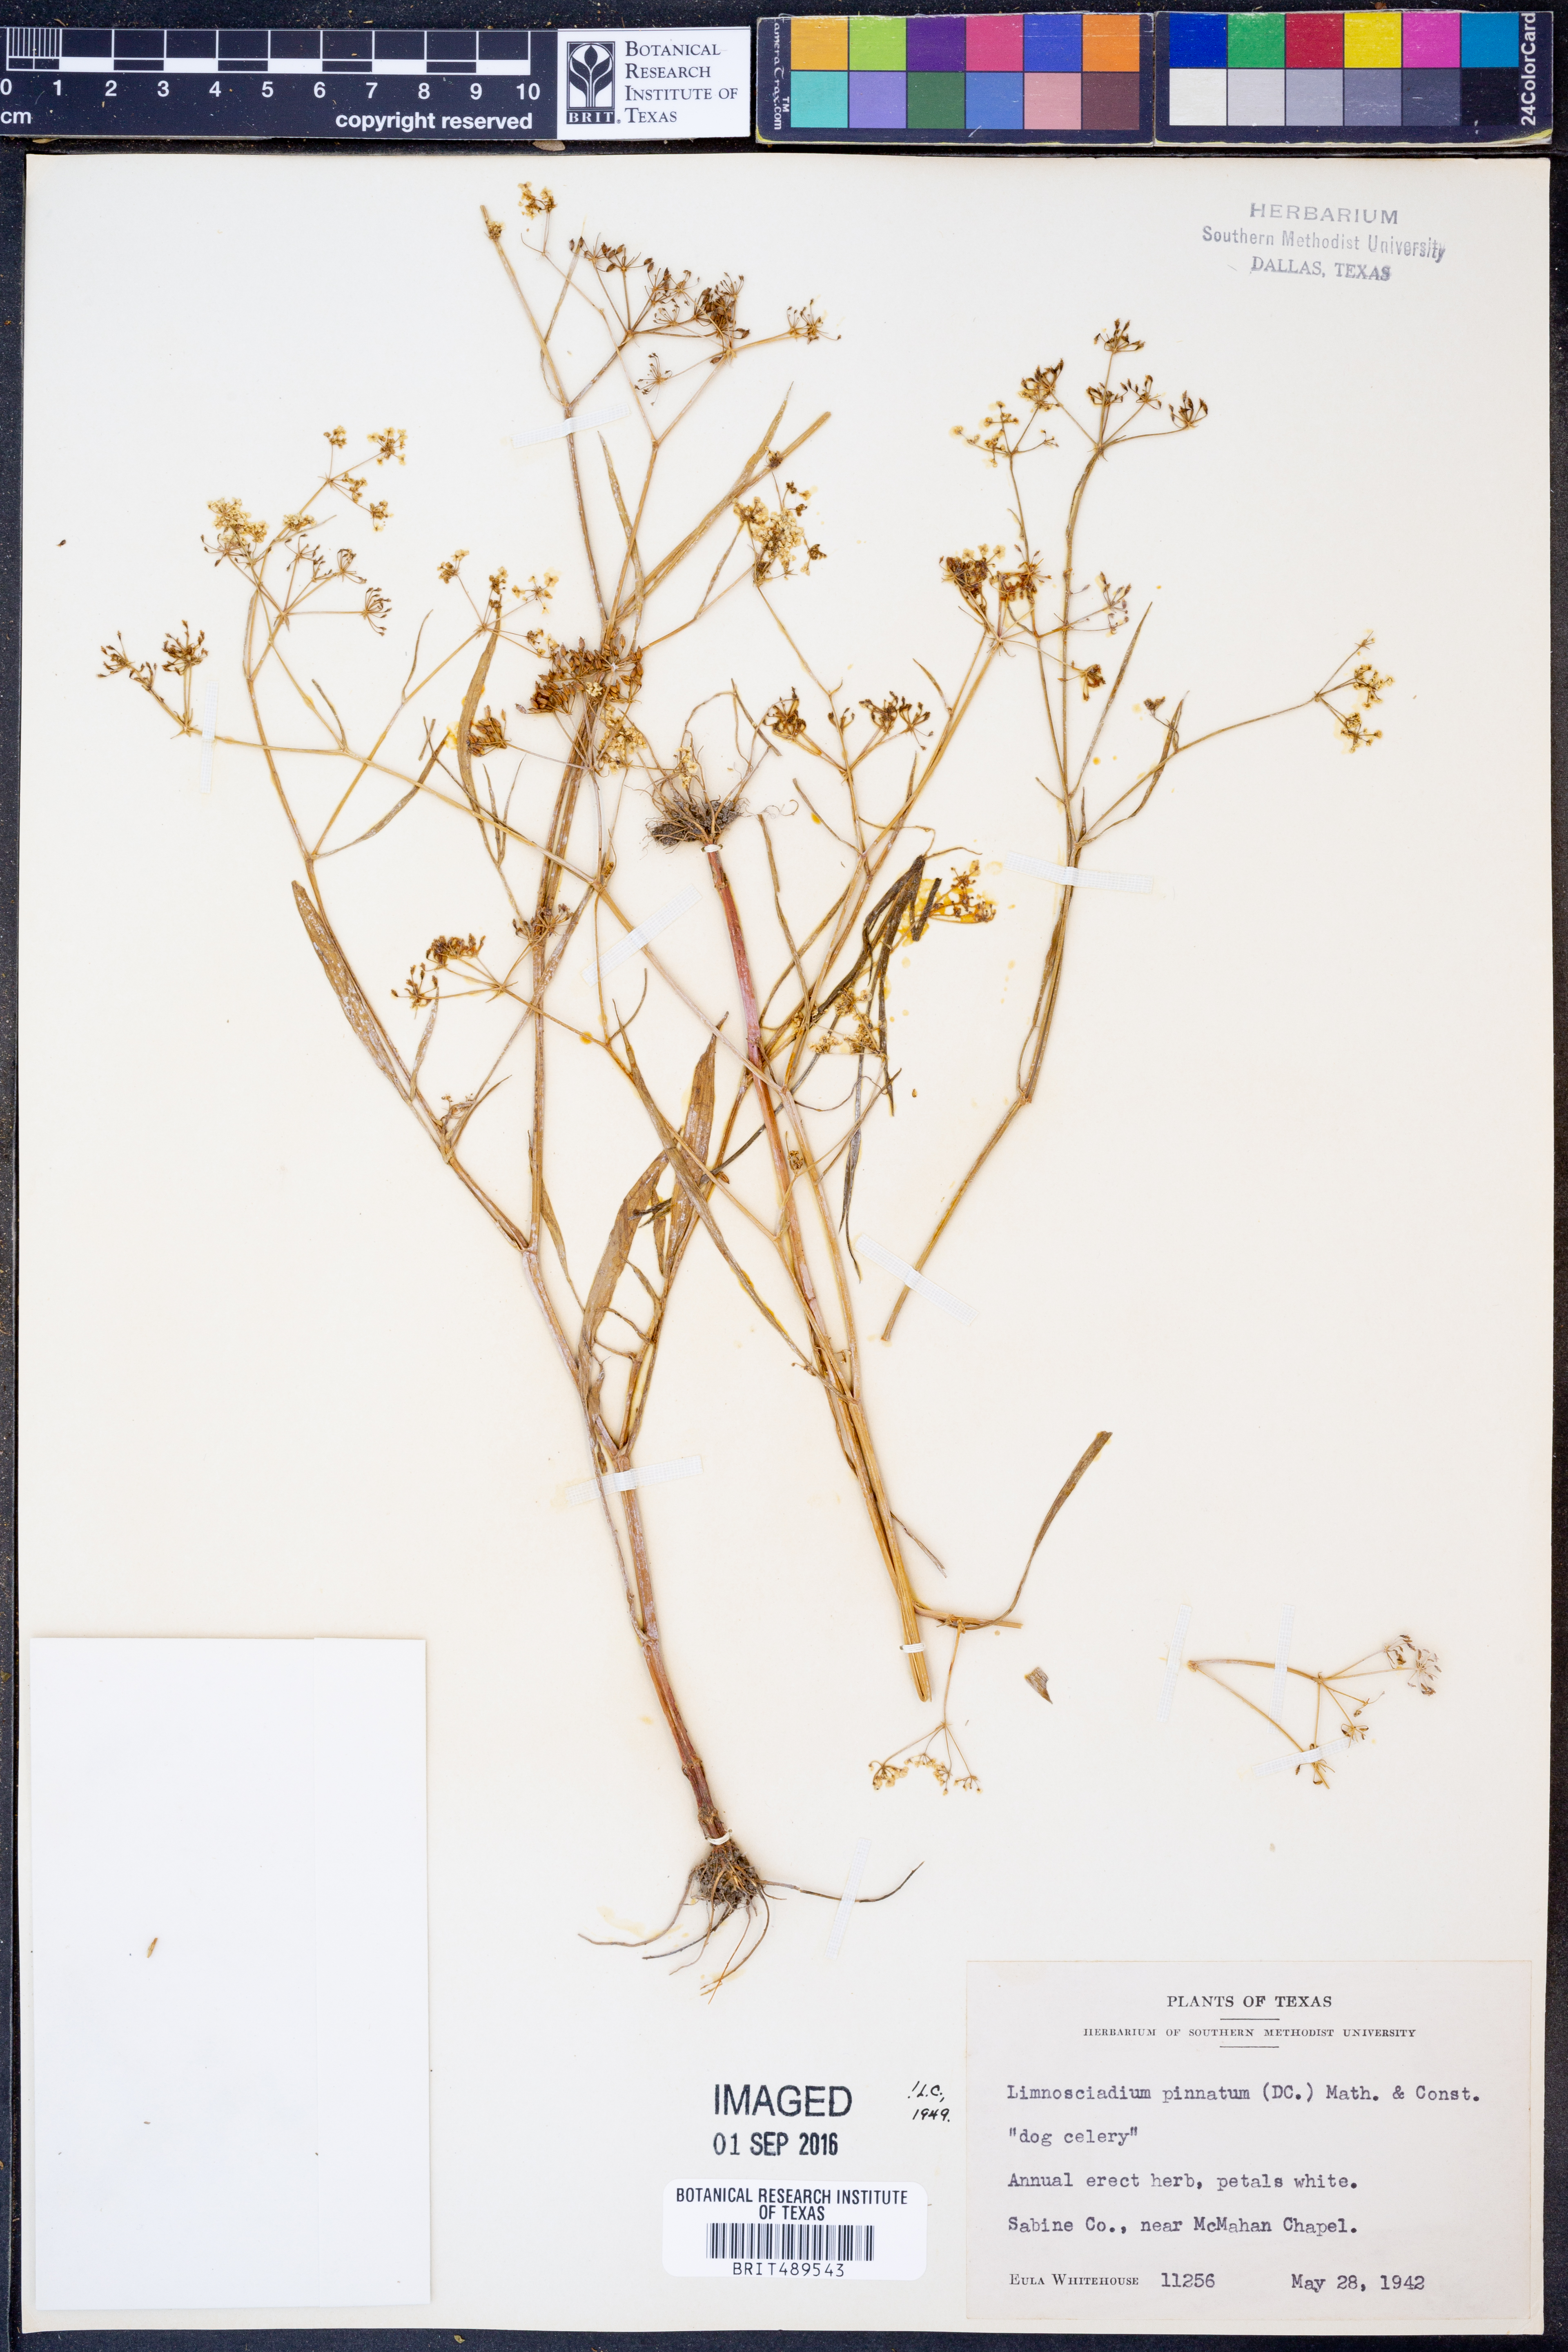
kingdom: Plantae
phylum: Tracheophyta
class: Magnoliopsida
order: Apiales
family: Apiaceae
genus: Limnosciadium
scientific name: Limnosciadium pinnatum
